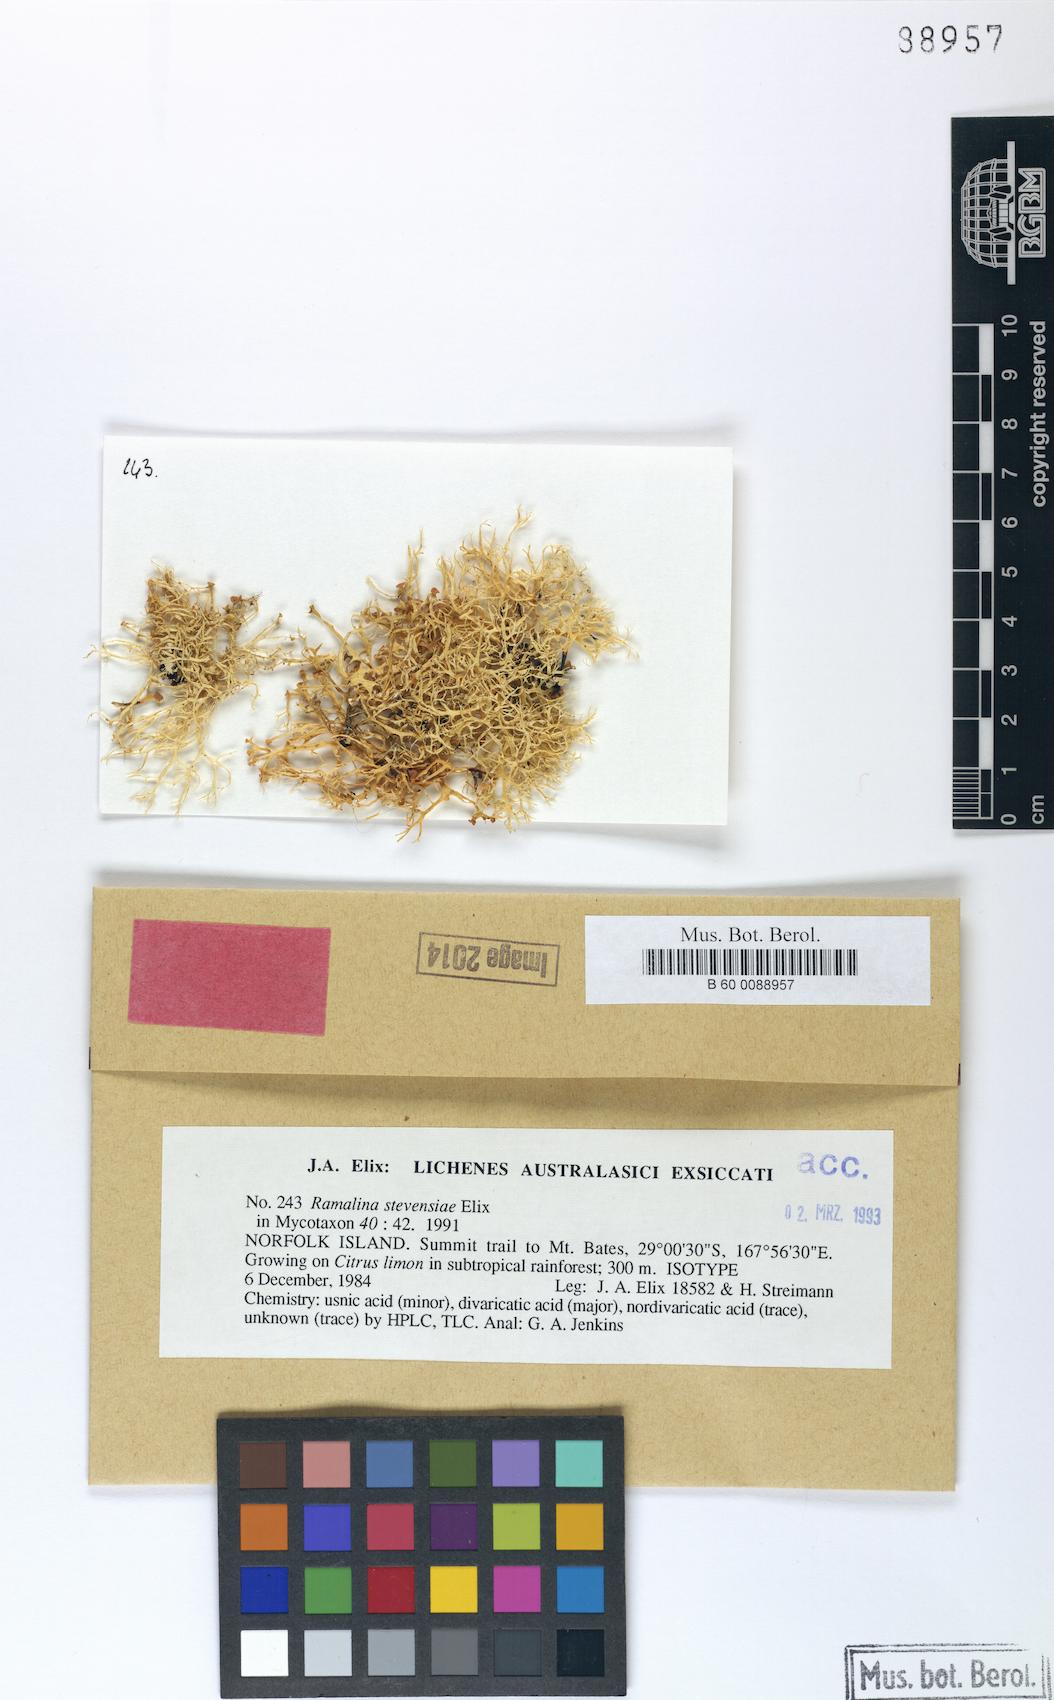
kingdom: Fungi
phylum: Ascomycota
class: Lecanoromycetes
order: Lecanorales
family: Ramalinaceae
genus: Ramalina
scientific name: Ramalina stevensiae
